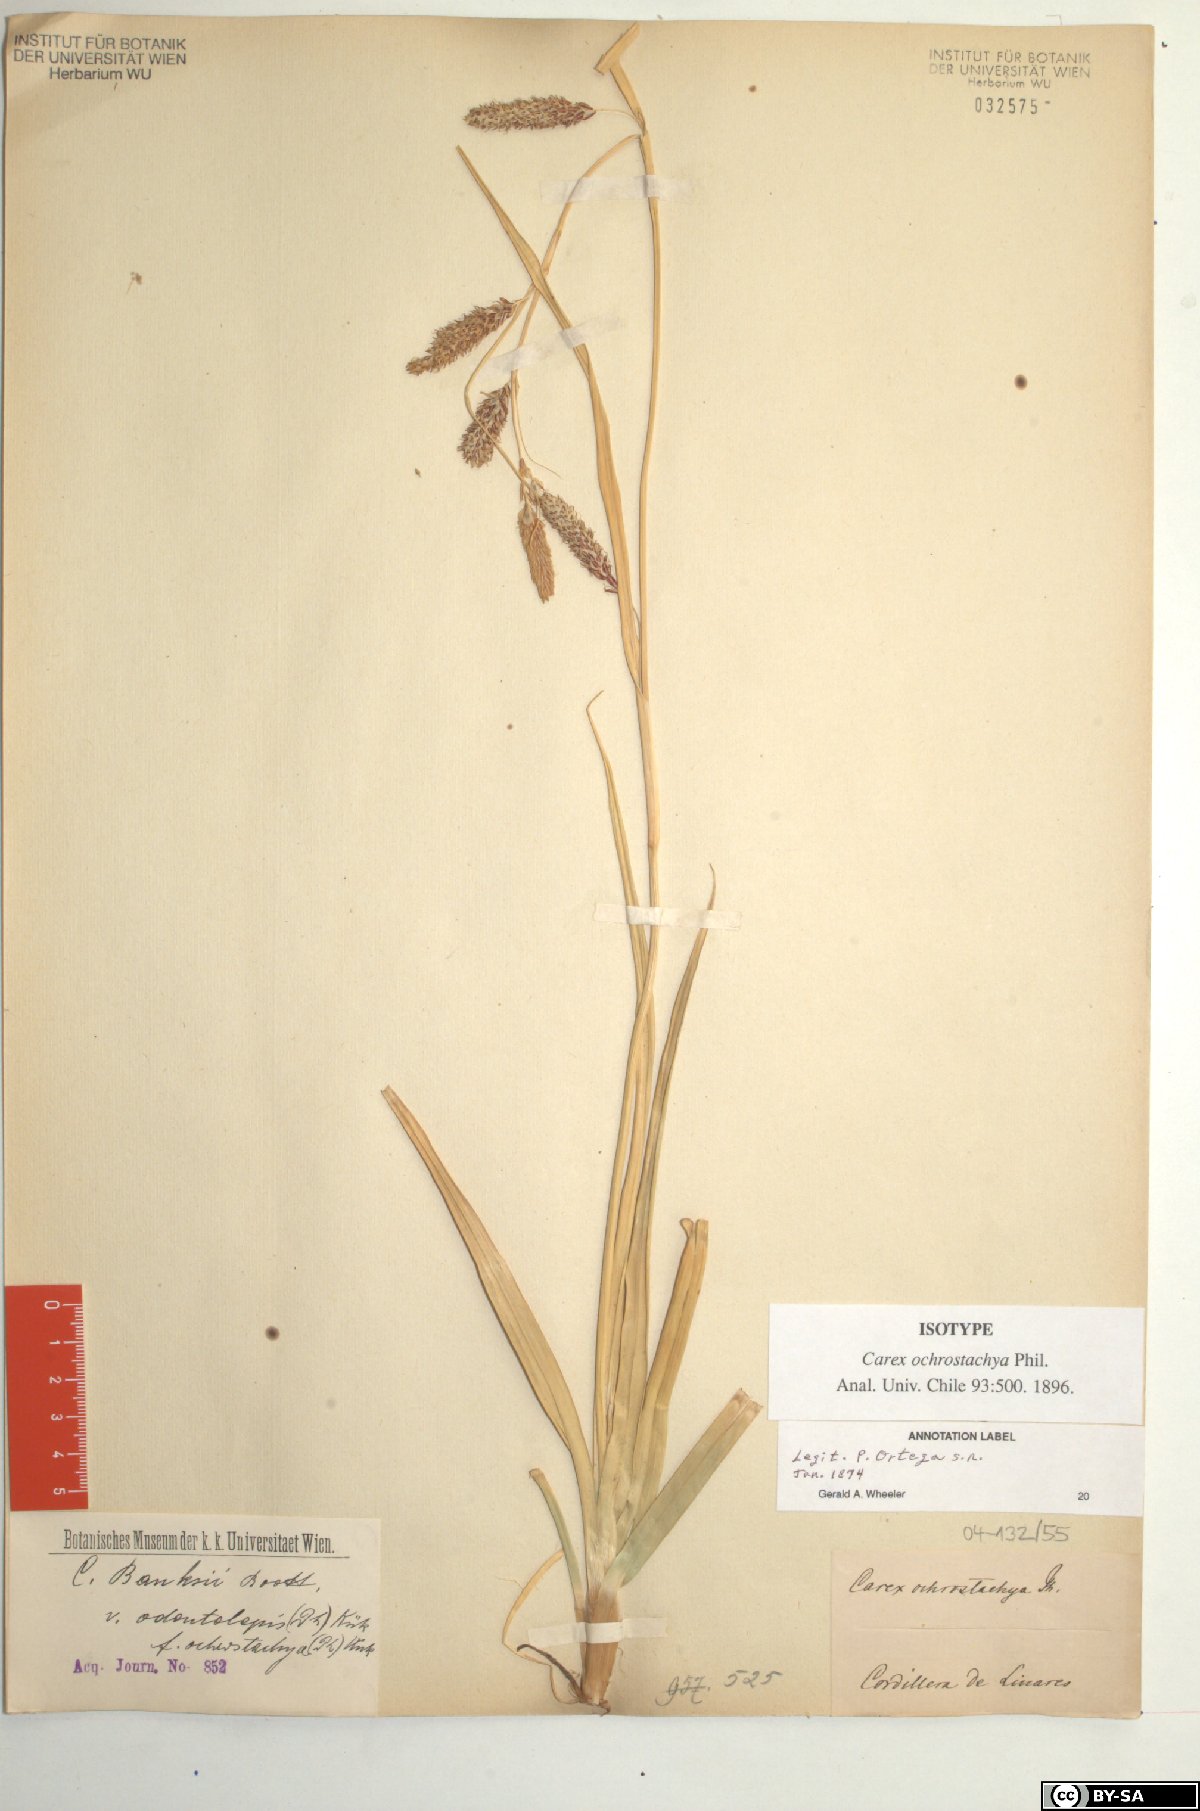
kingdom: Plantae
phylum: Tracheophyta
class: Liliopsida
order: Poales
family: Cyperaceae
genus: Carex
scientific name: Carex banksii
